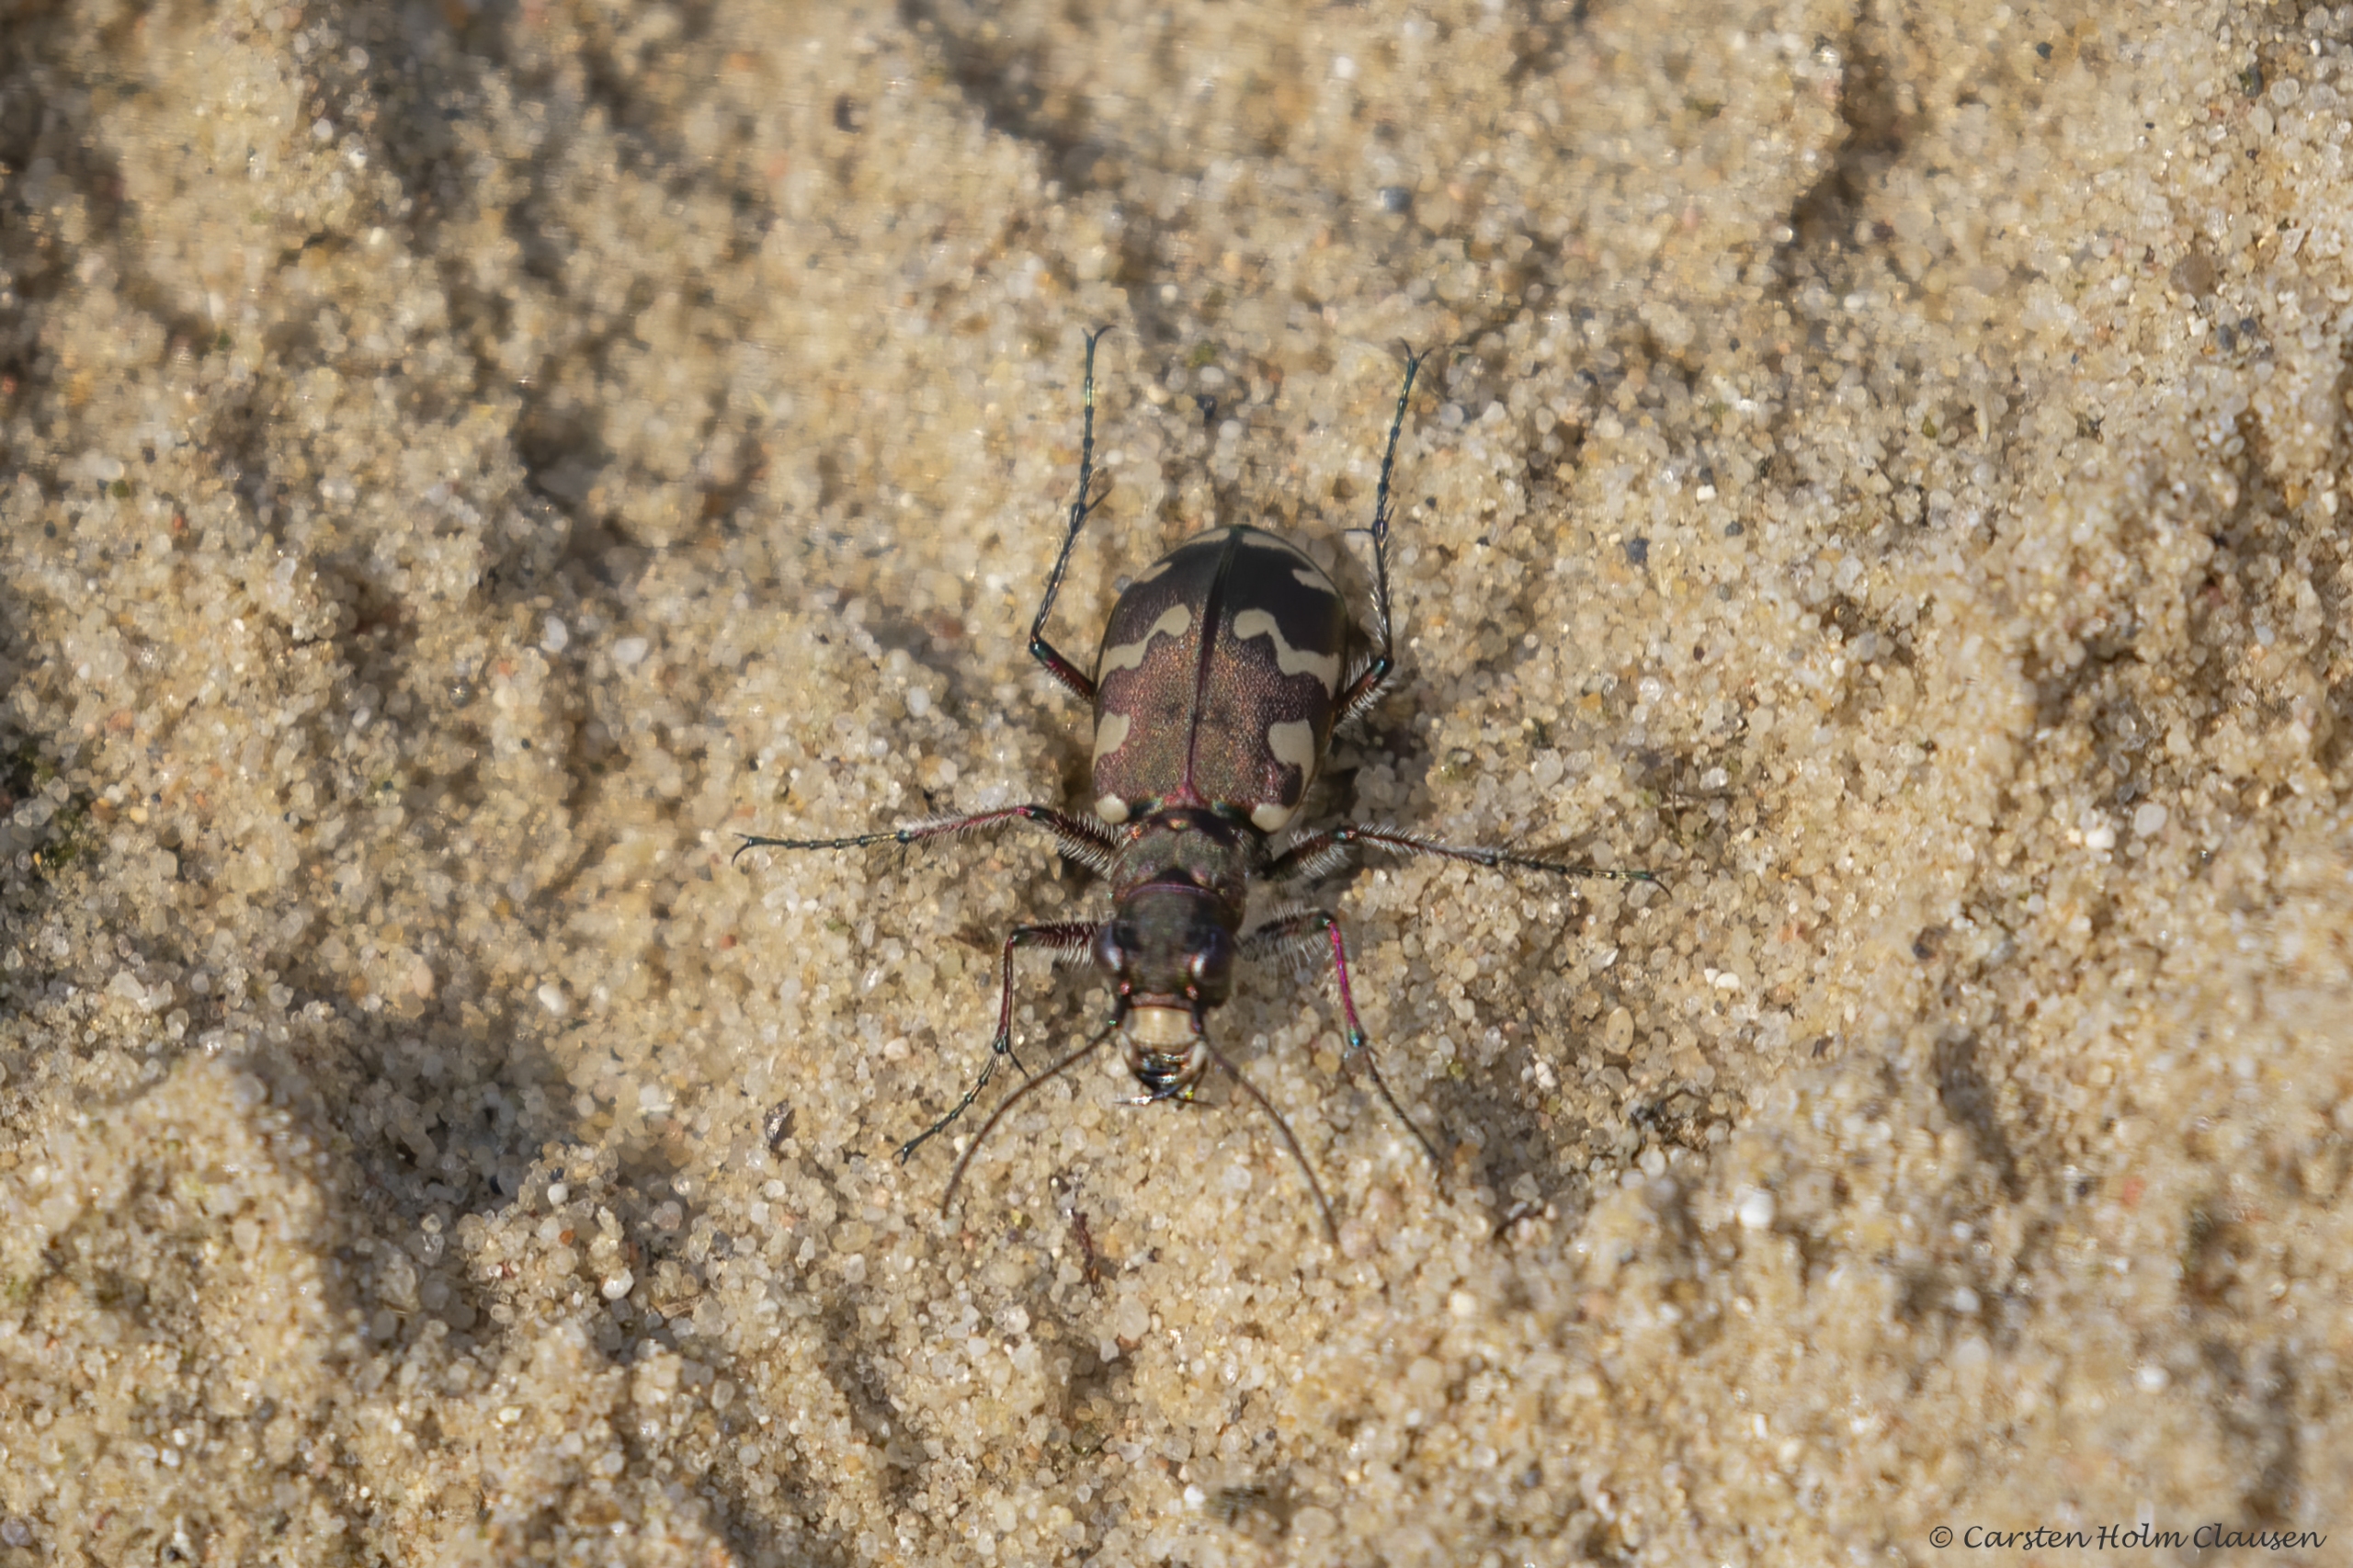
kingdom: Animalia
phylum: Arthropoda
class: Insecta
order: Coleoptera
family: Carabidae
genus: Cicindela
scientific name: Cicindela hybrida
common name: Brun sandspringer
